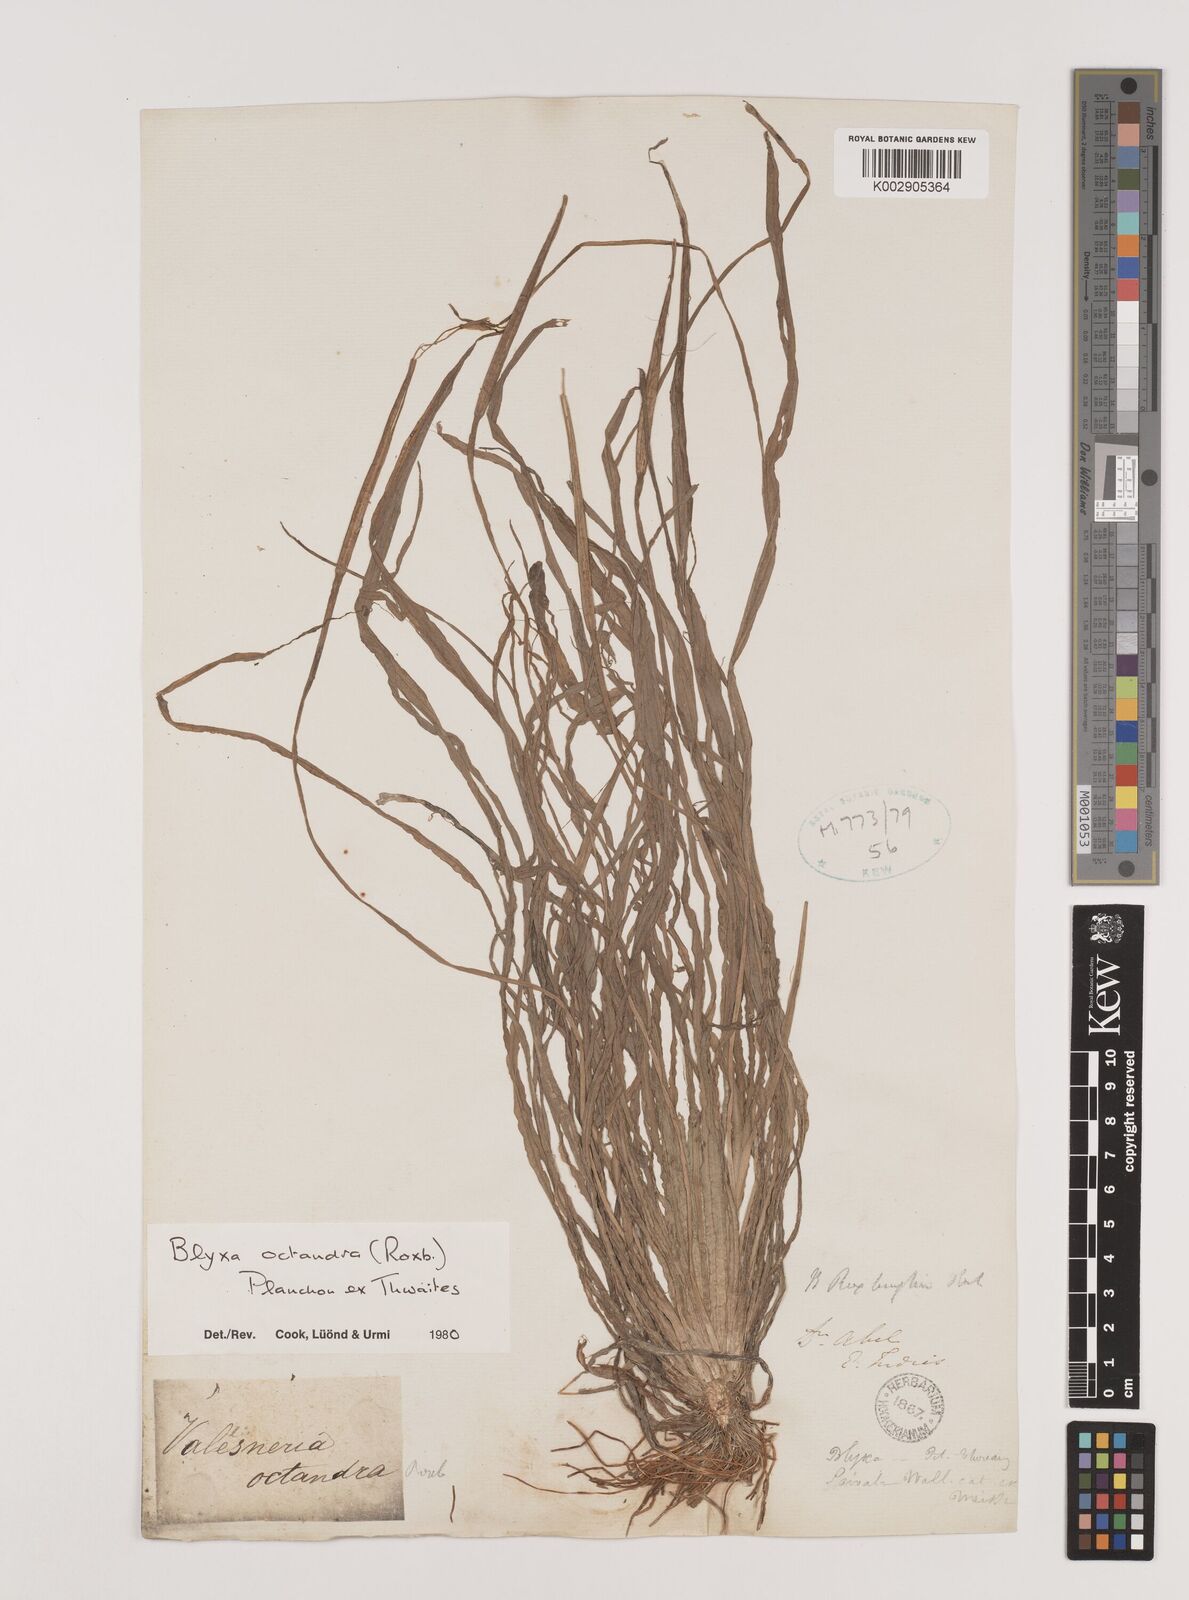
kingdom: Plantae
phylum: Tracheophyta
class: Liliopsida
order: Alismatales
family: Hydrocharitaceae
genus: Blyxa
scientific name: Blyxa octandra
